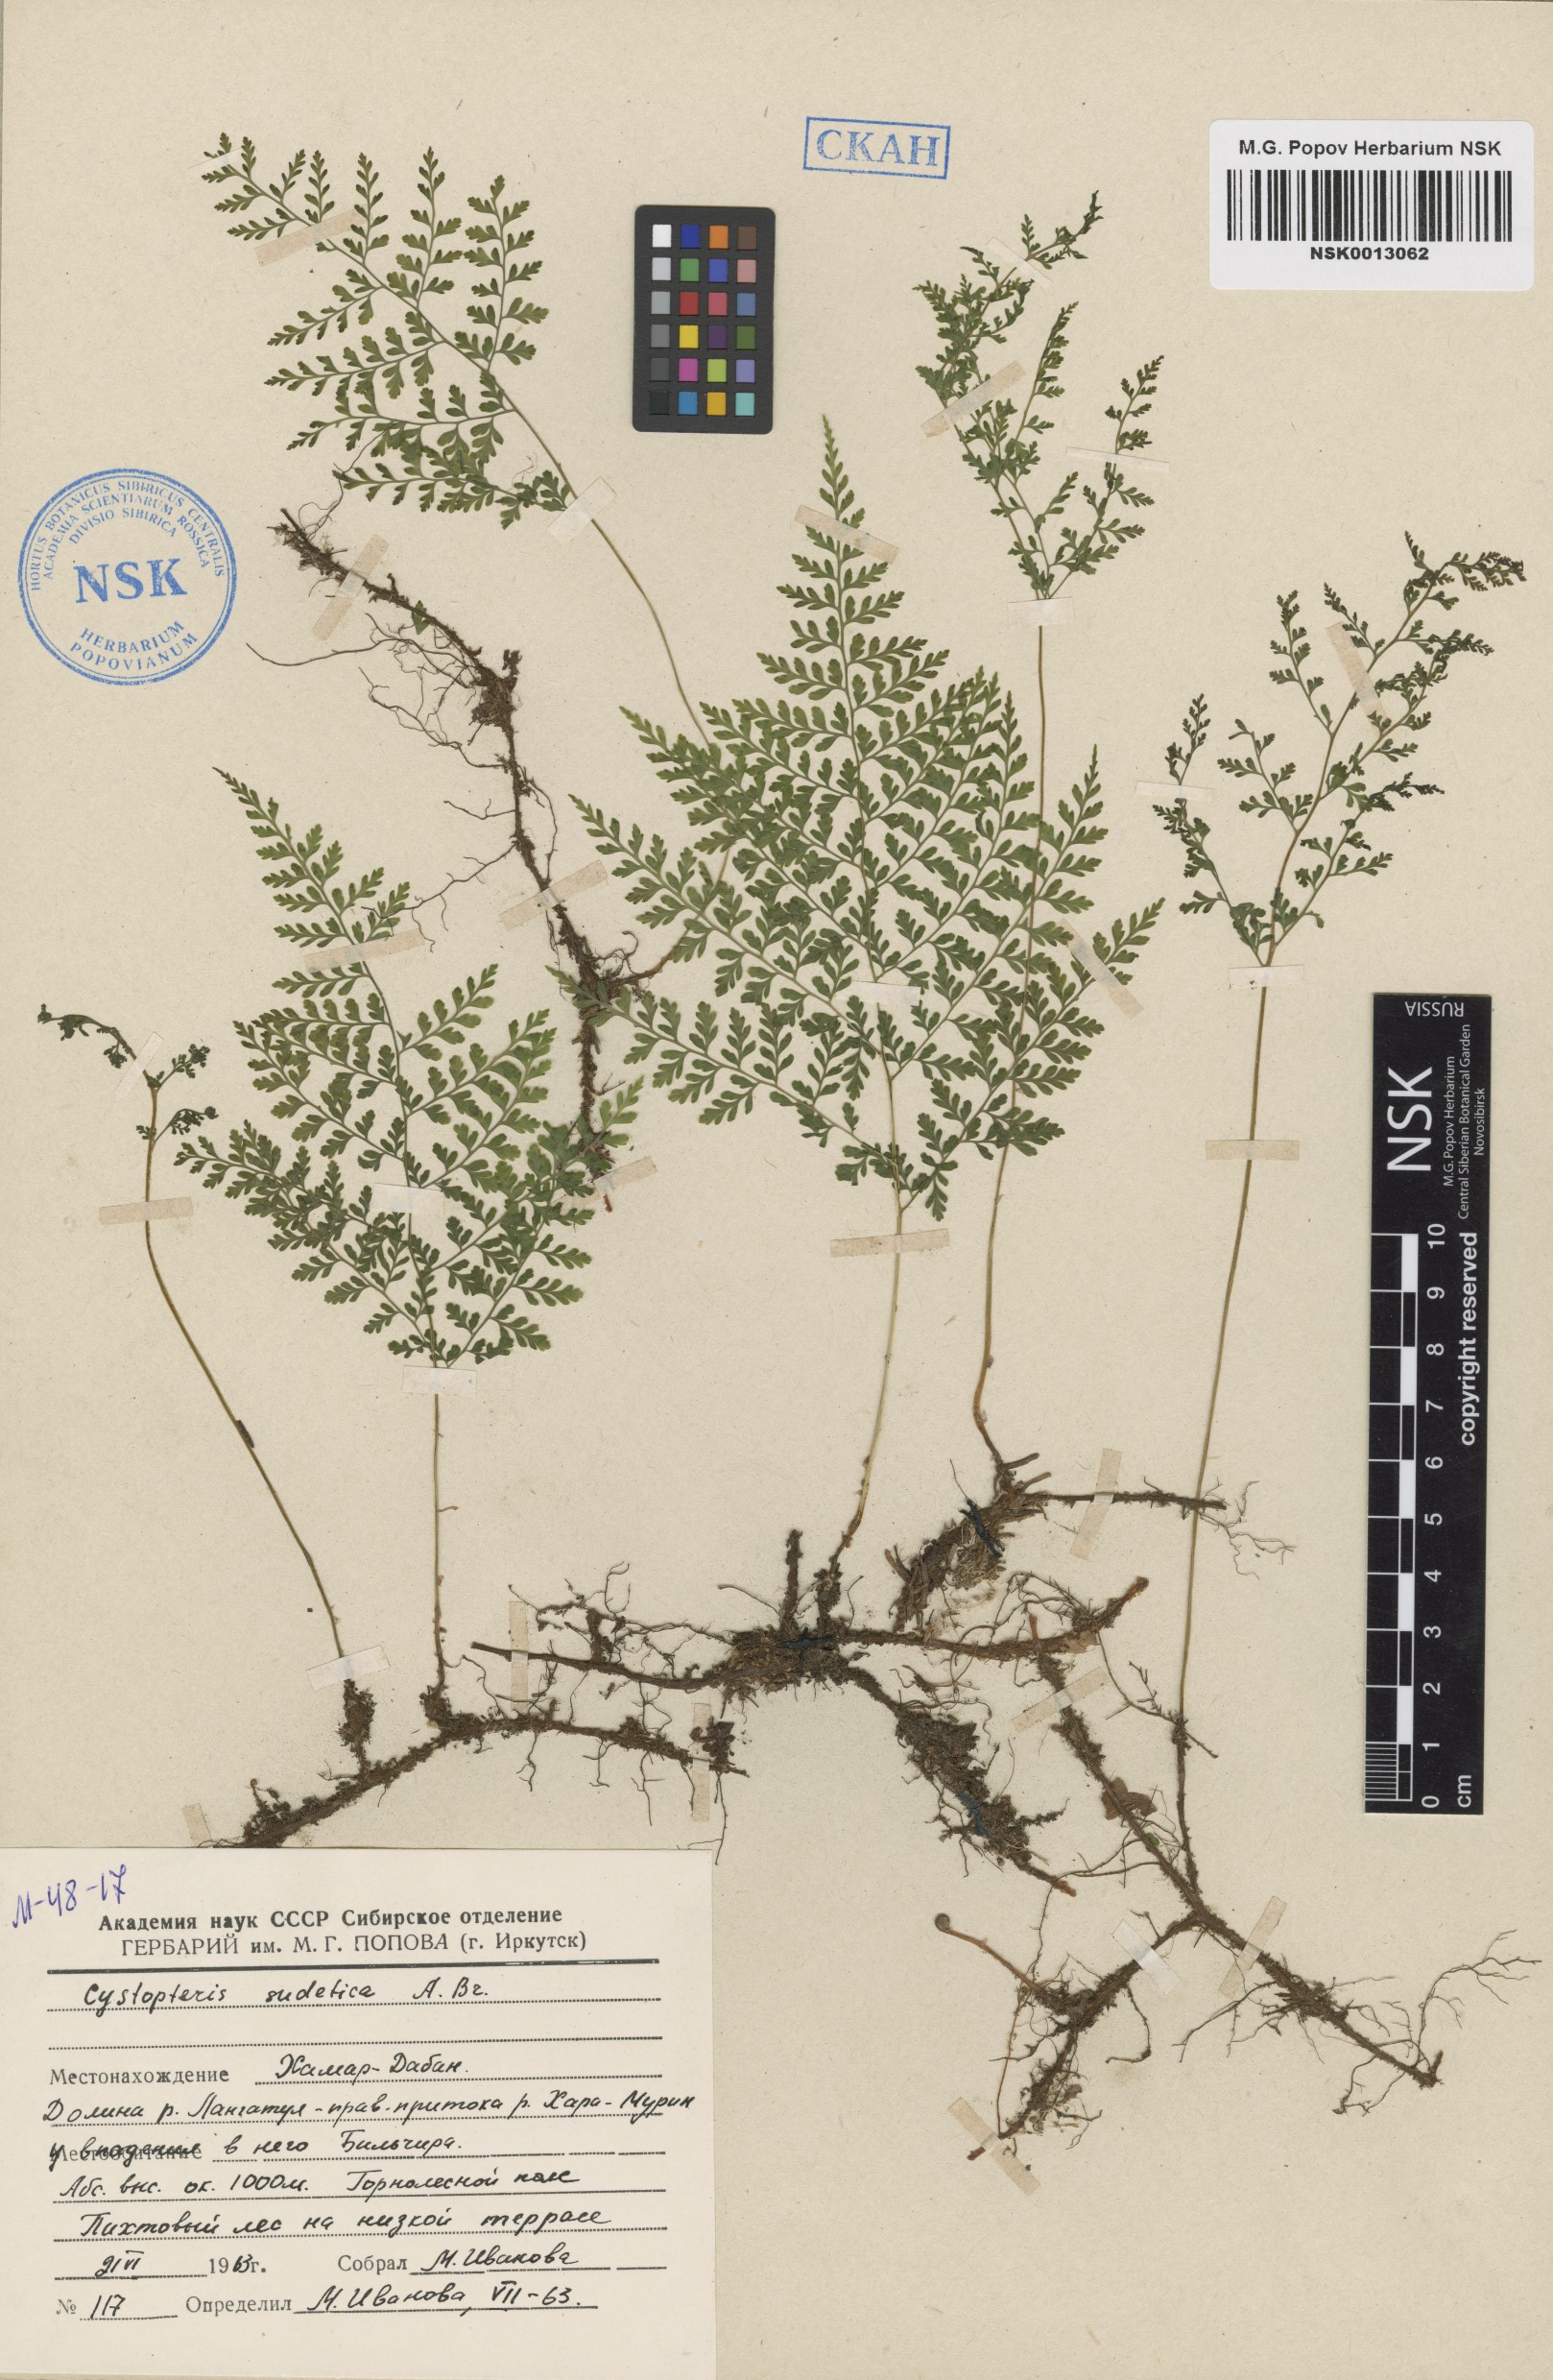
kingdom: Plantae
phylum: Tracheophyta
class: Polypodiopsida
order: Polypodiales
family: Cystopteridaceae
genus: Cystopteris
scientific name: Cystopteris sudetica
